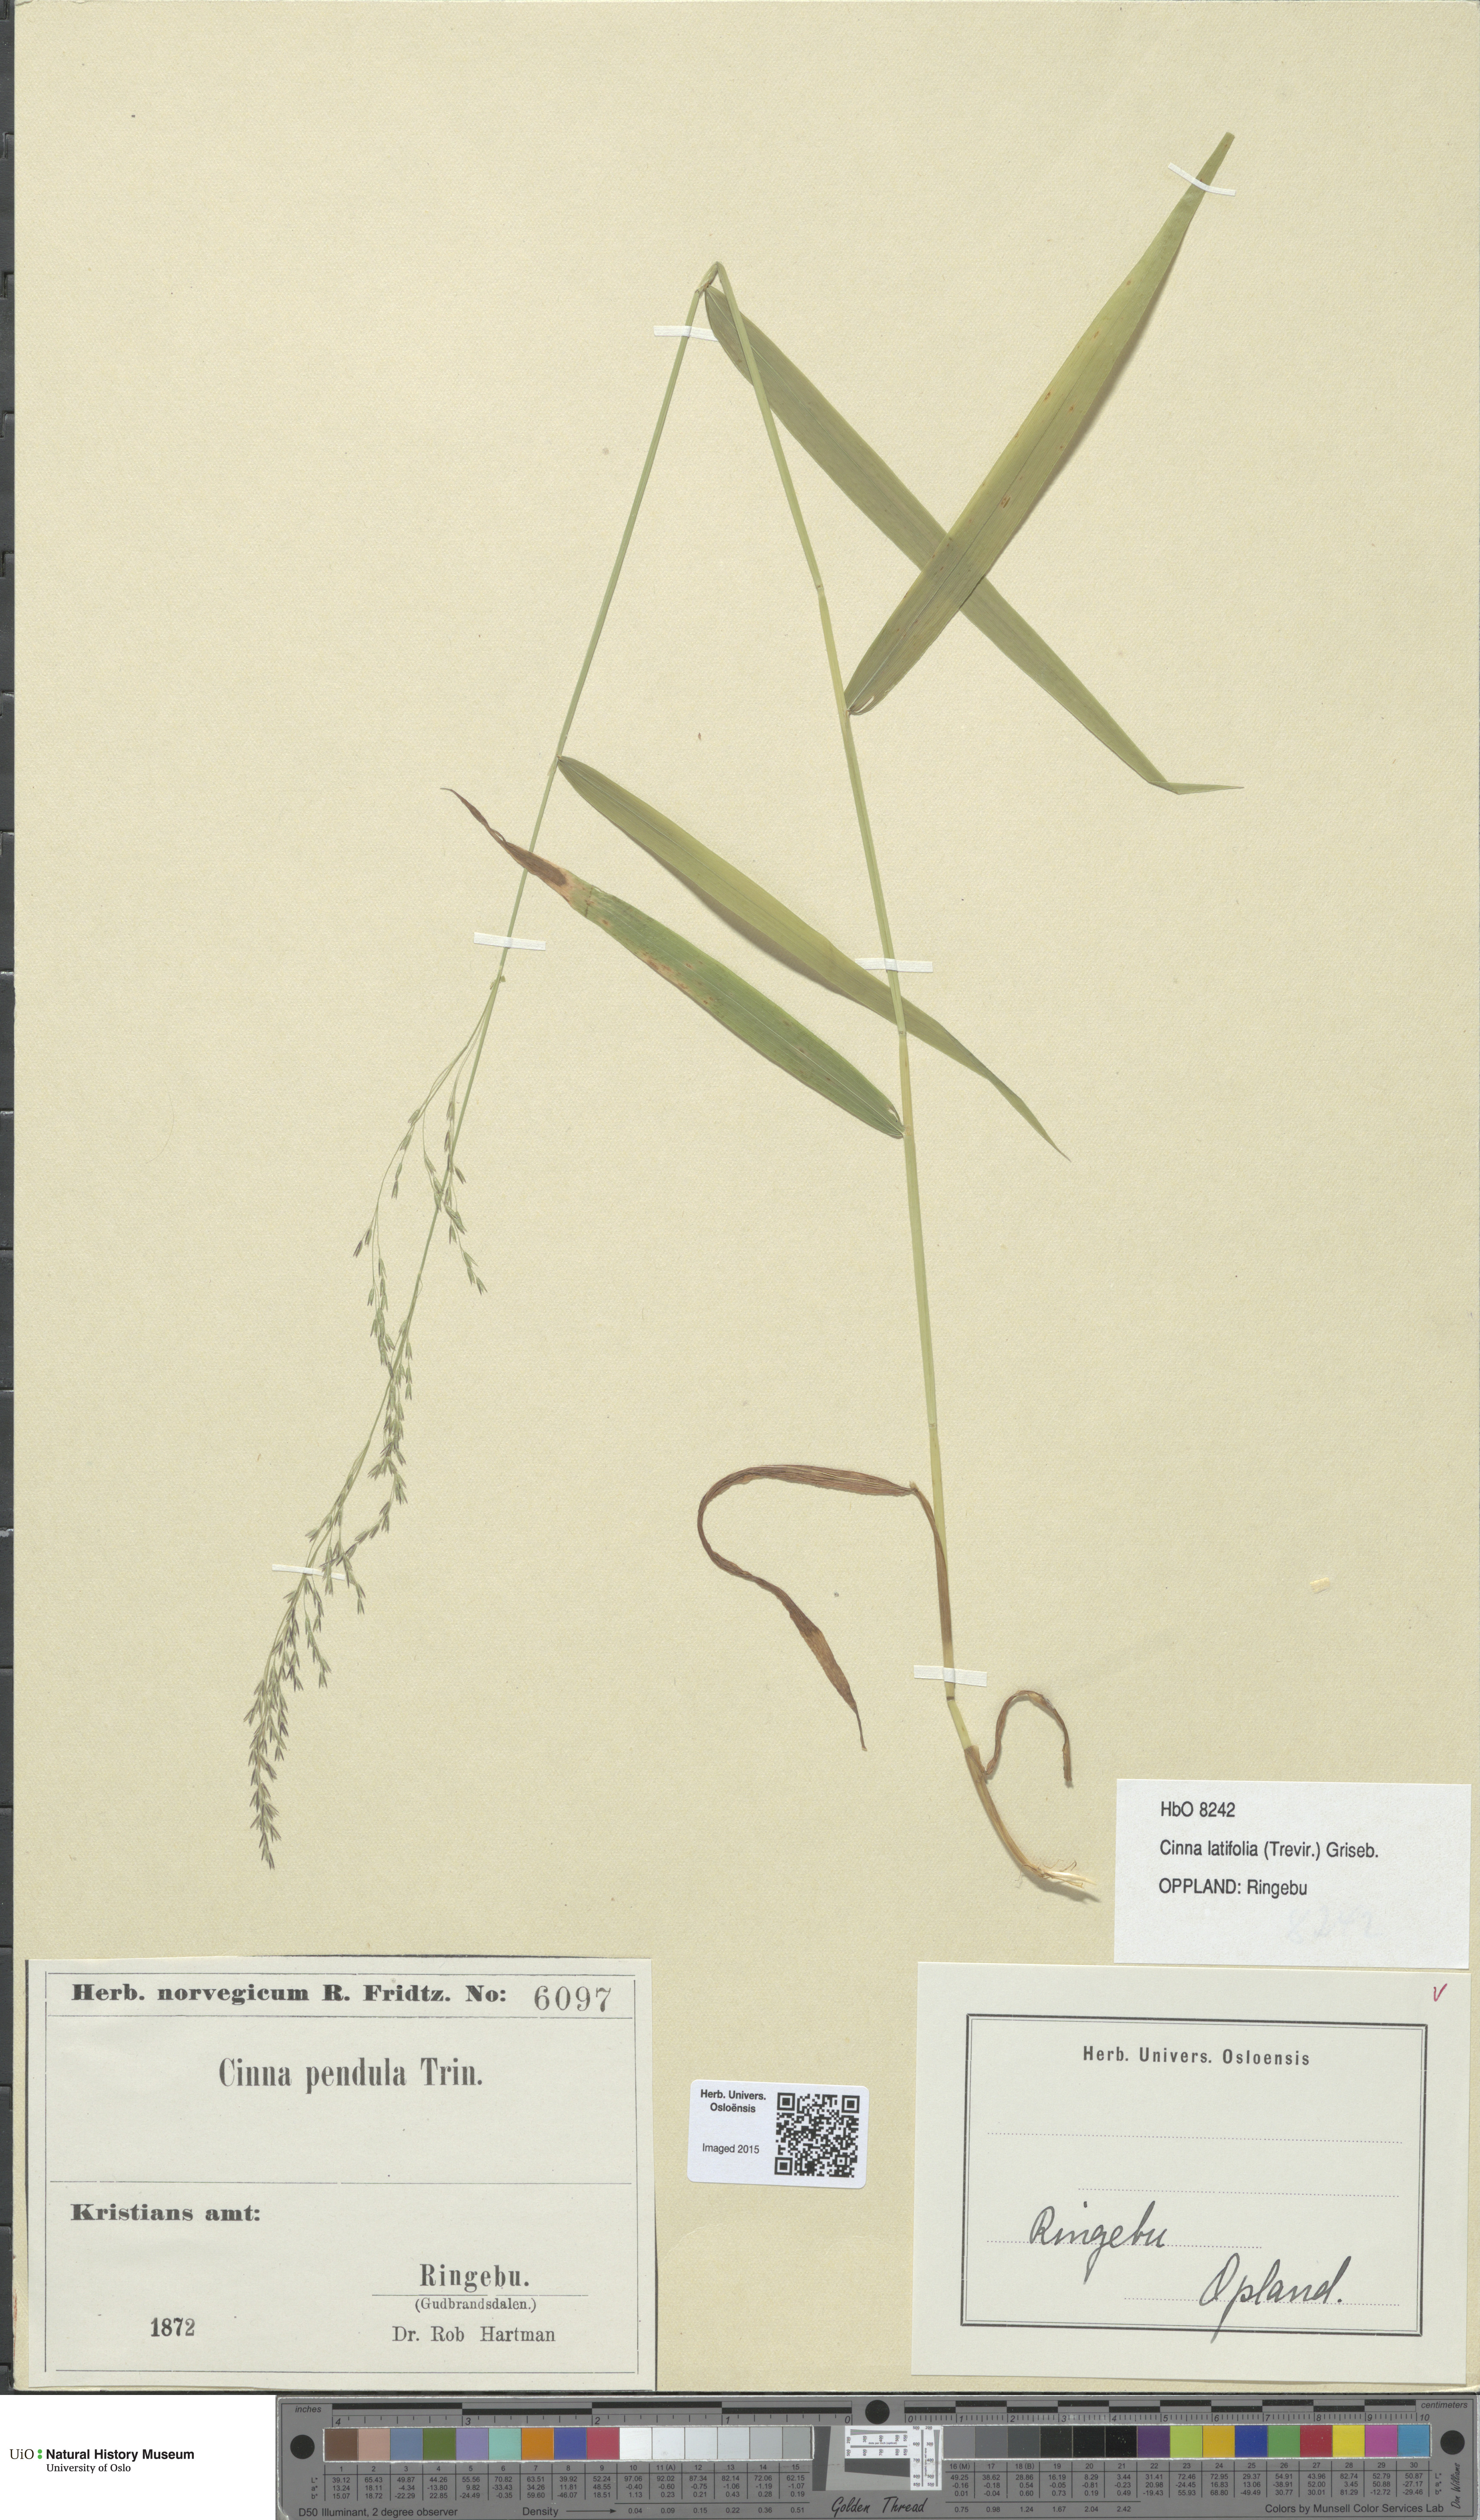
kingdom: Plantae
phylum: Tracheophyta
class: Liliopsida
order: Poales
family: Poaceae
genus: Cinna
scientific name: Cinna latifolia
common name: Drooping woodreed
